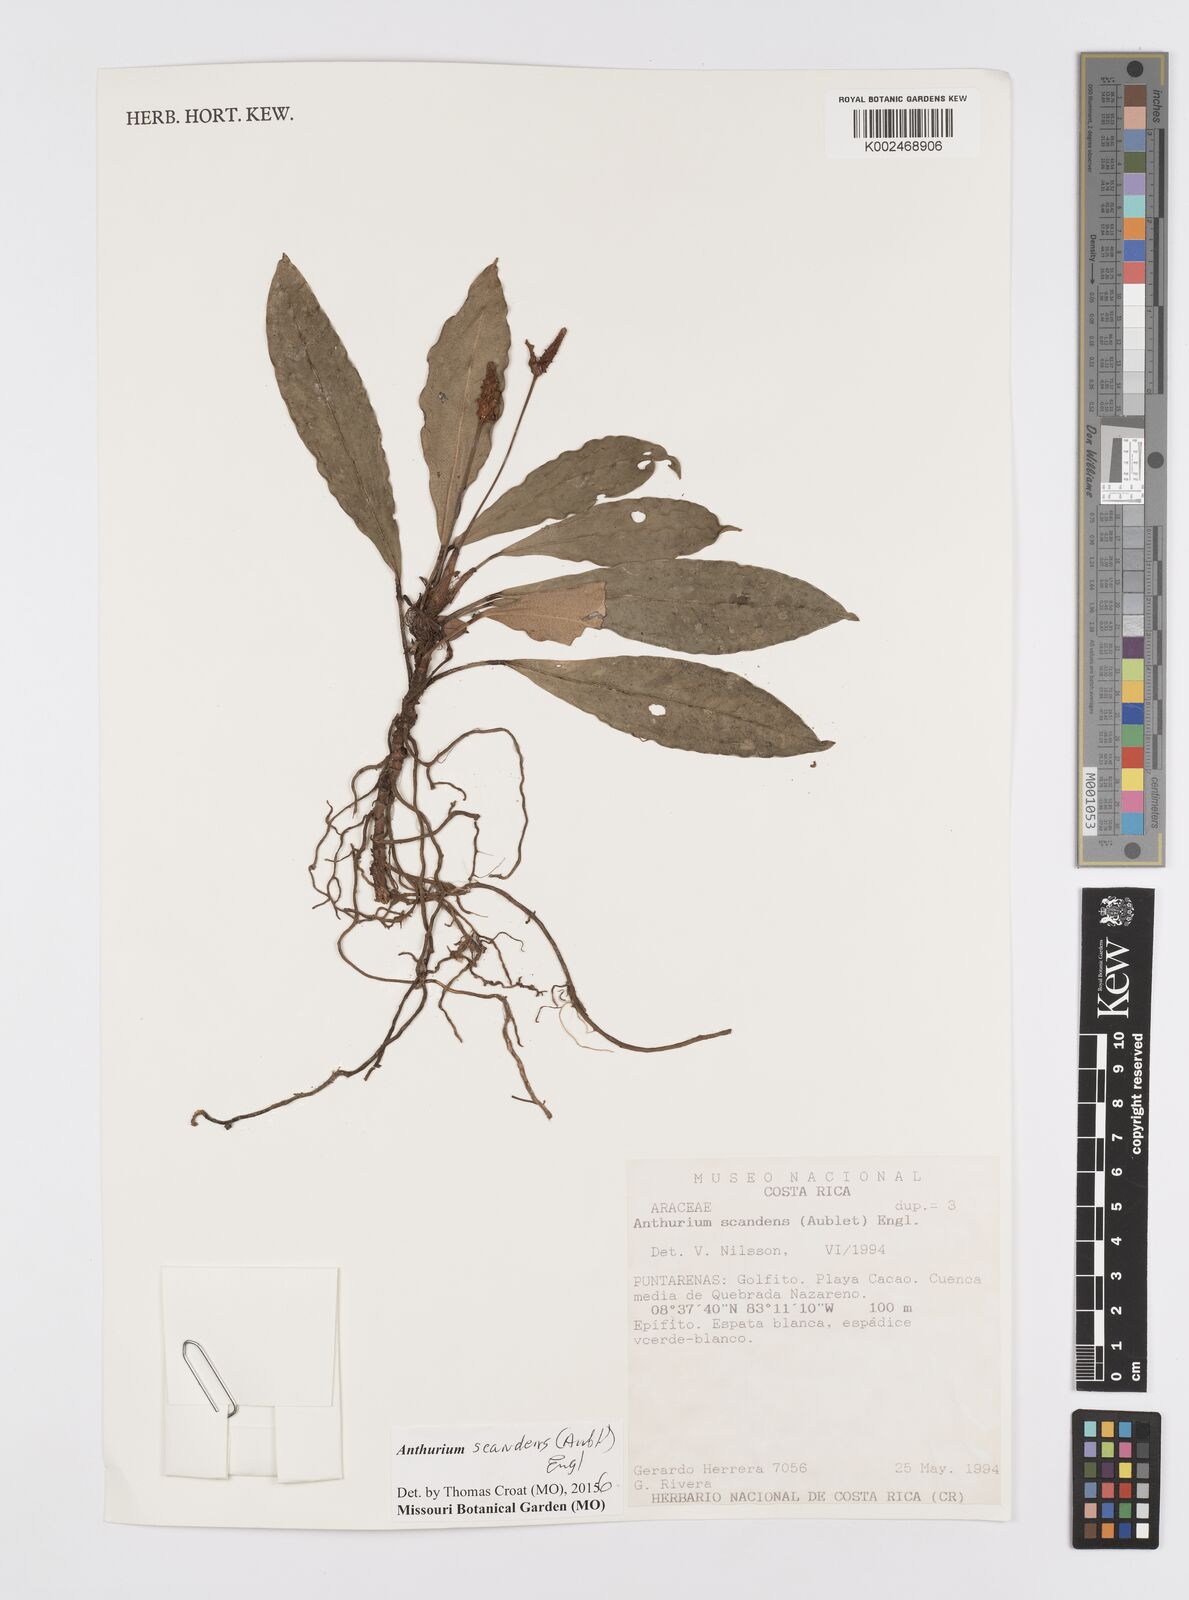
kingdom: Plantae
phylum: Tracheophyta
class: Liliopsida
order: Alismatales
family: Araceae
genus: Anthurium
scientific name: Anthurium scandens
